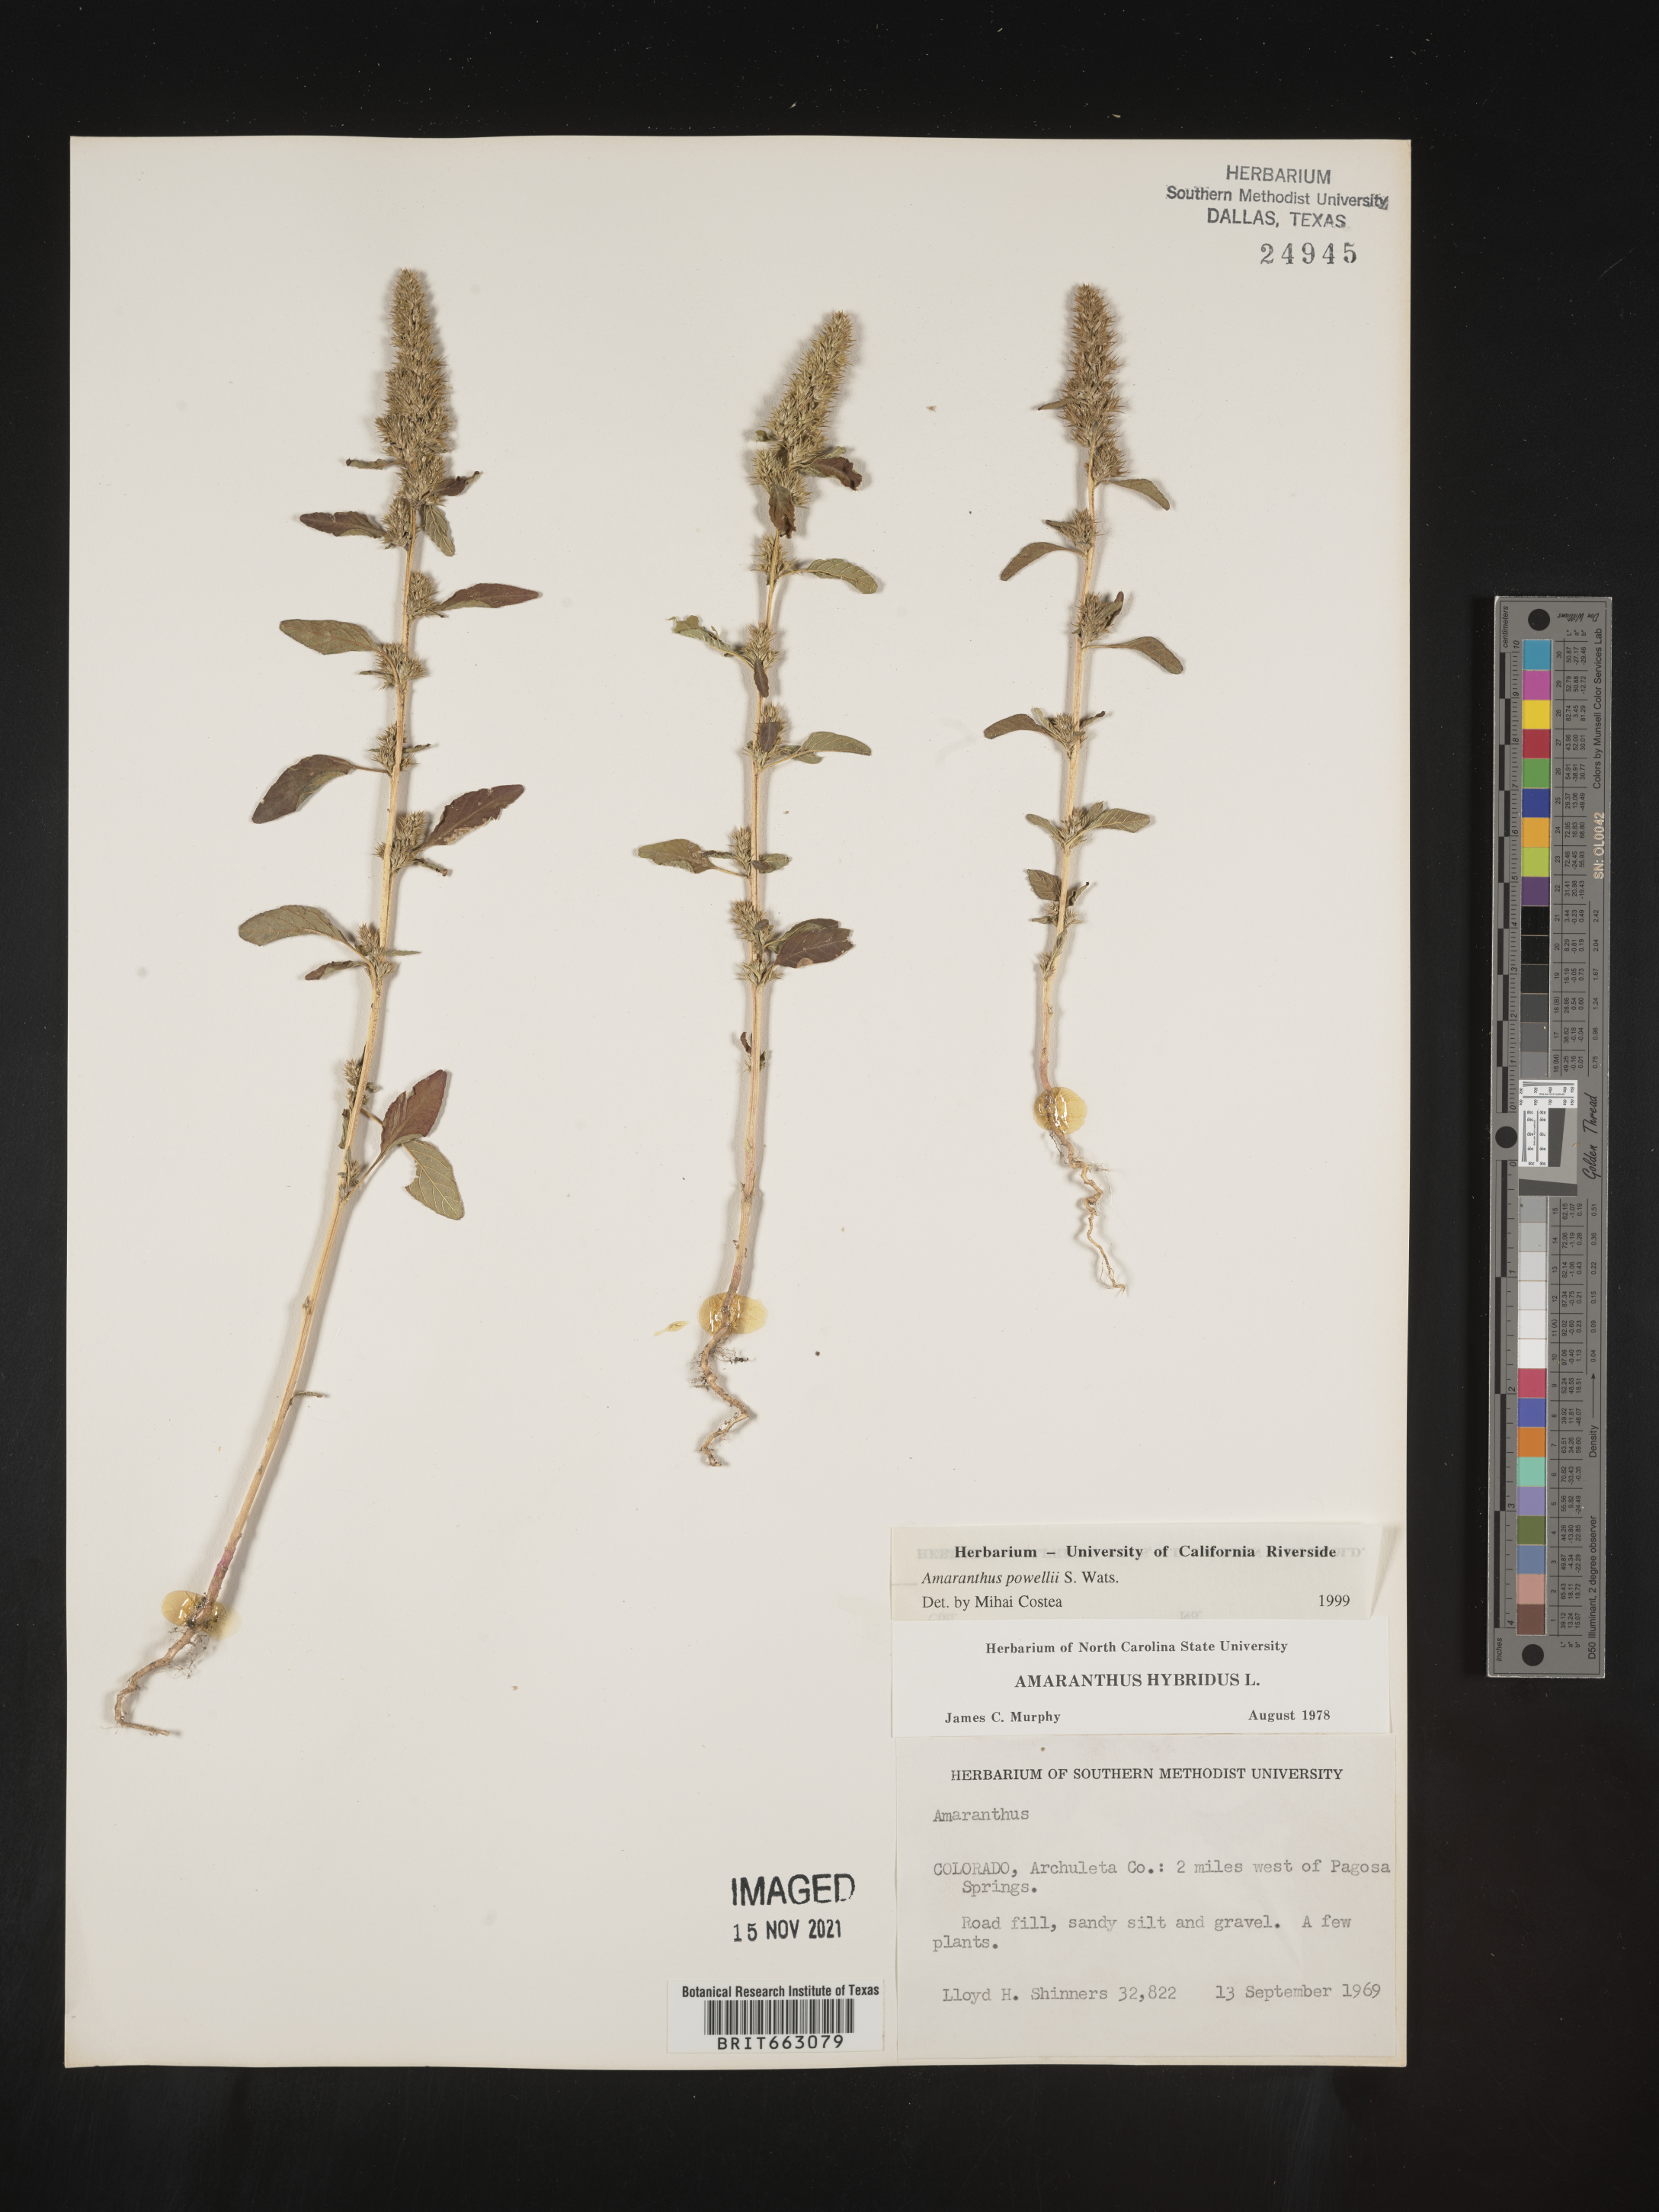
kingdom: Plantae
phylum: Tracheophyta
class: Magnoliopsida
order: Caryophyllales
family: Amaranthaceae
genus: Amaranthus
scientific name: Amaranthus powellii
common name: Powell's amaranth
